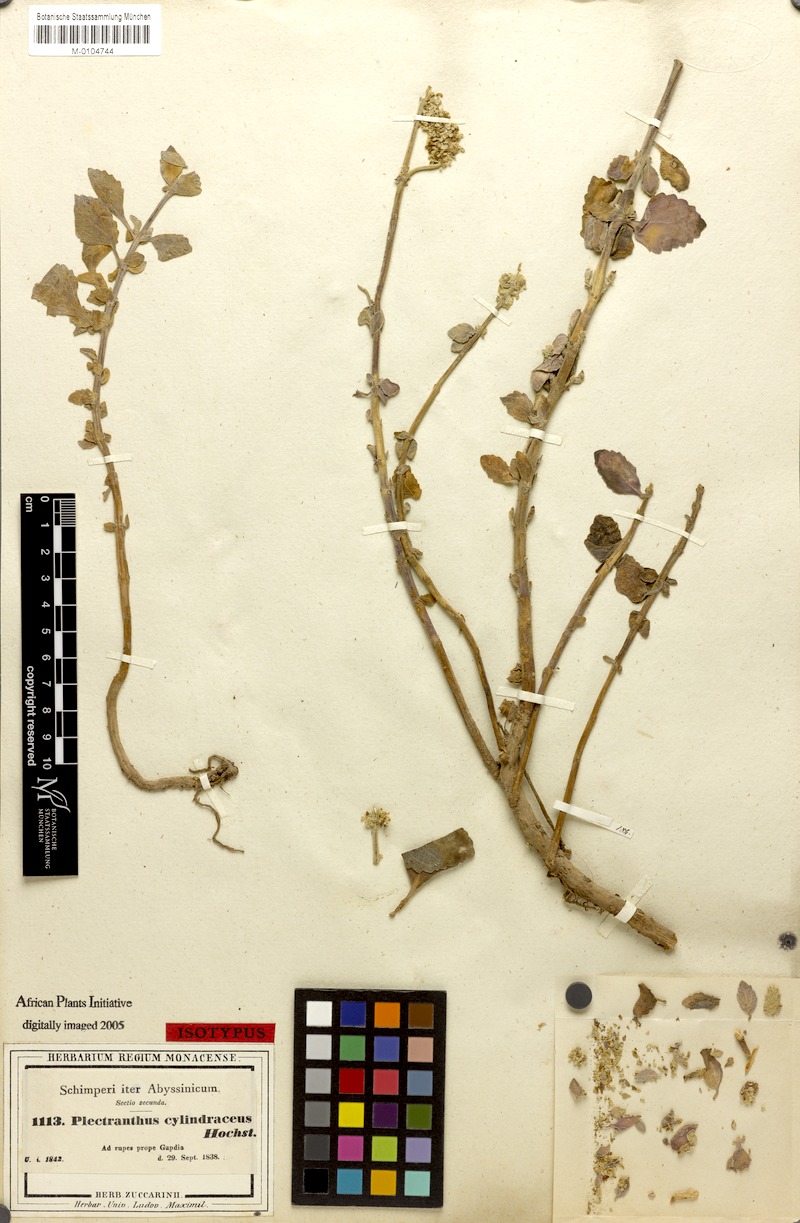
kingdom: Plantae
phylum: Tracheophyta
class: Magnoliopsida
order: Lamiales
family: Lamiaceae
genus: Coleus
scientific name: Coleus cylindraceus
